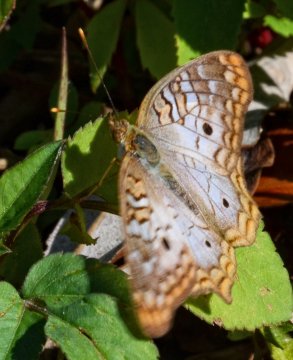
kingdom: Animalia
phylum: Arthropoda
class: Insecta
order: Lepidoptera
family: Nymphalidae
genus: Anartia
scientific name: Anartia jatrophae
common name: White Peacock
